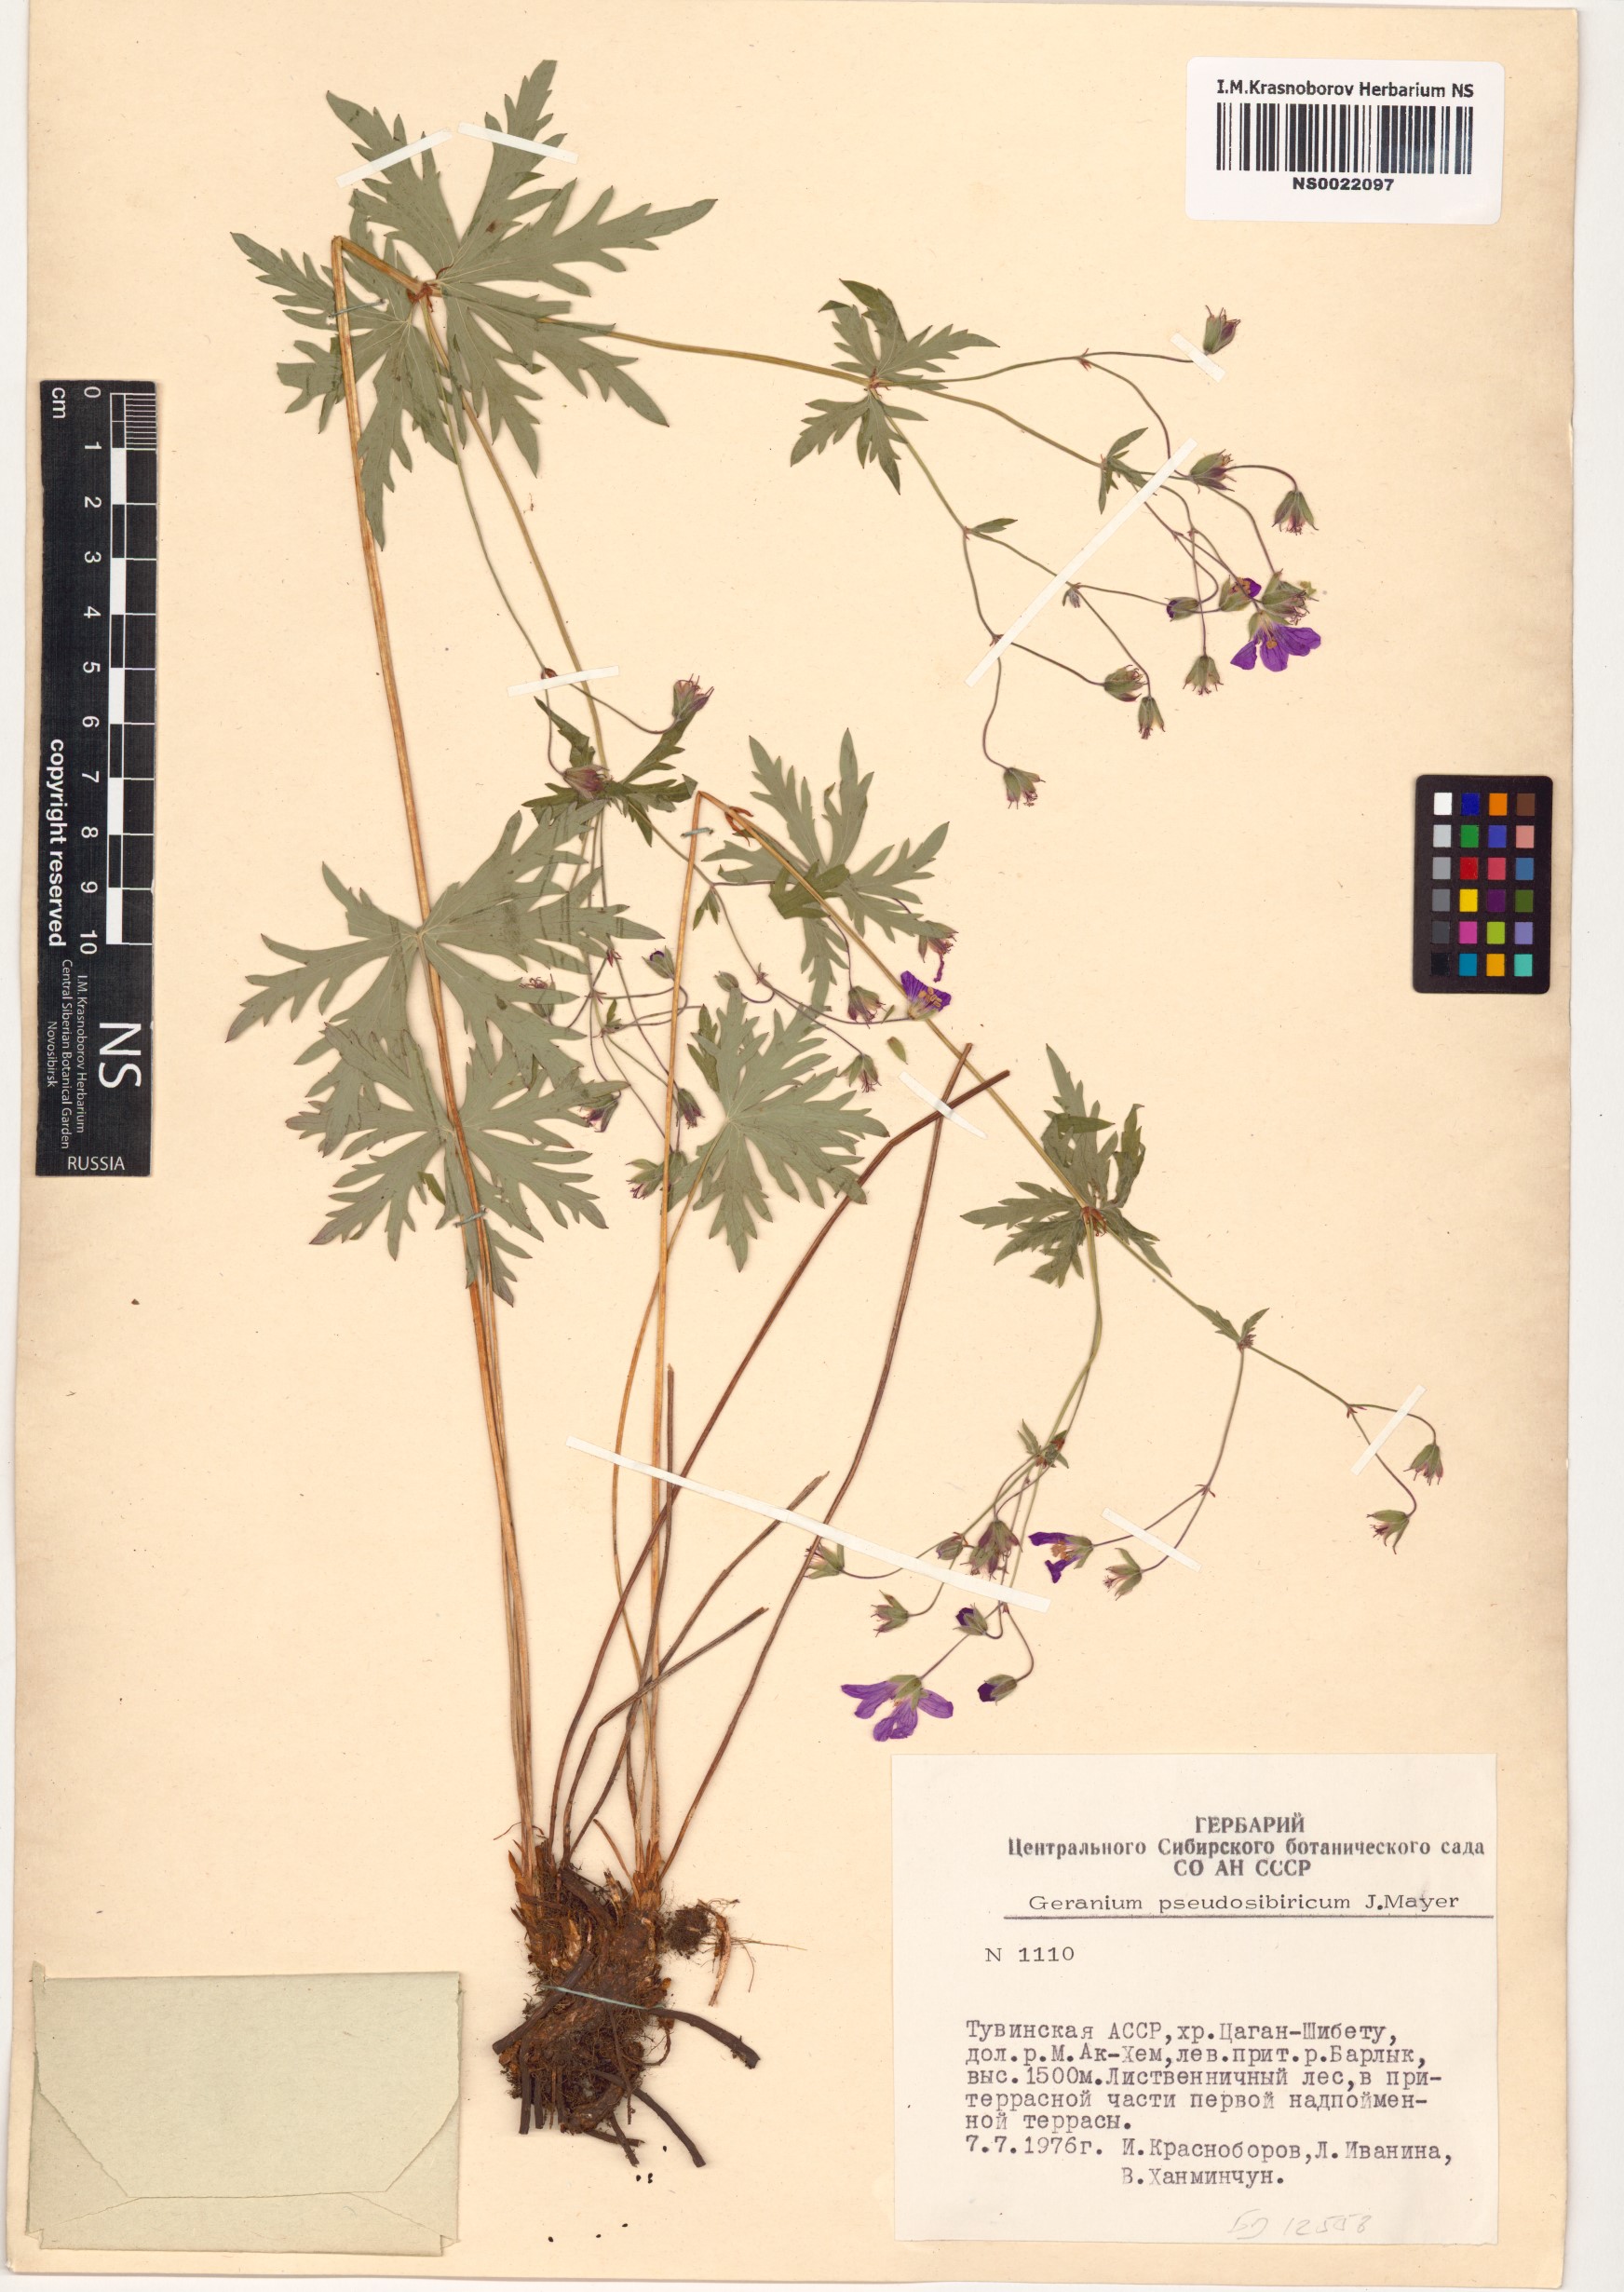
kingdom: Plantae
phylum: Tracheophyta
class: Magnoliopsida
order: Geraniales
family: Geraniaceae
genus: Geranium
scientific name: Geranium pseudosibiricum
